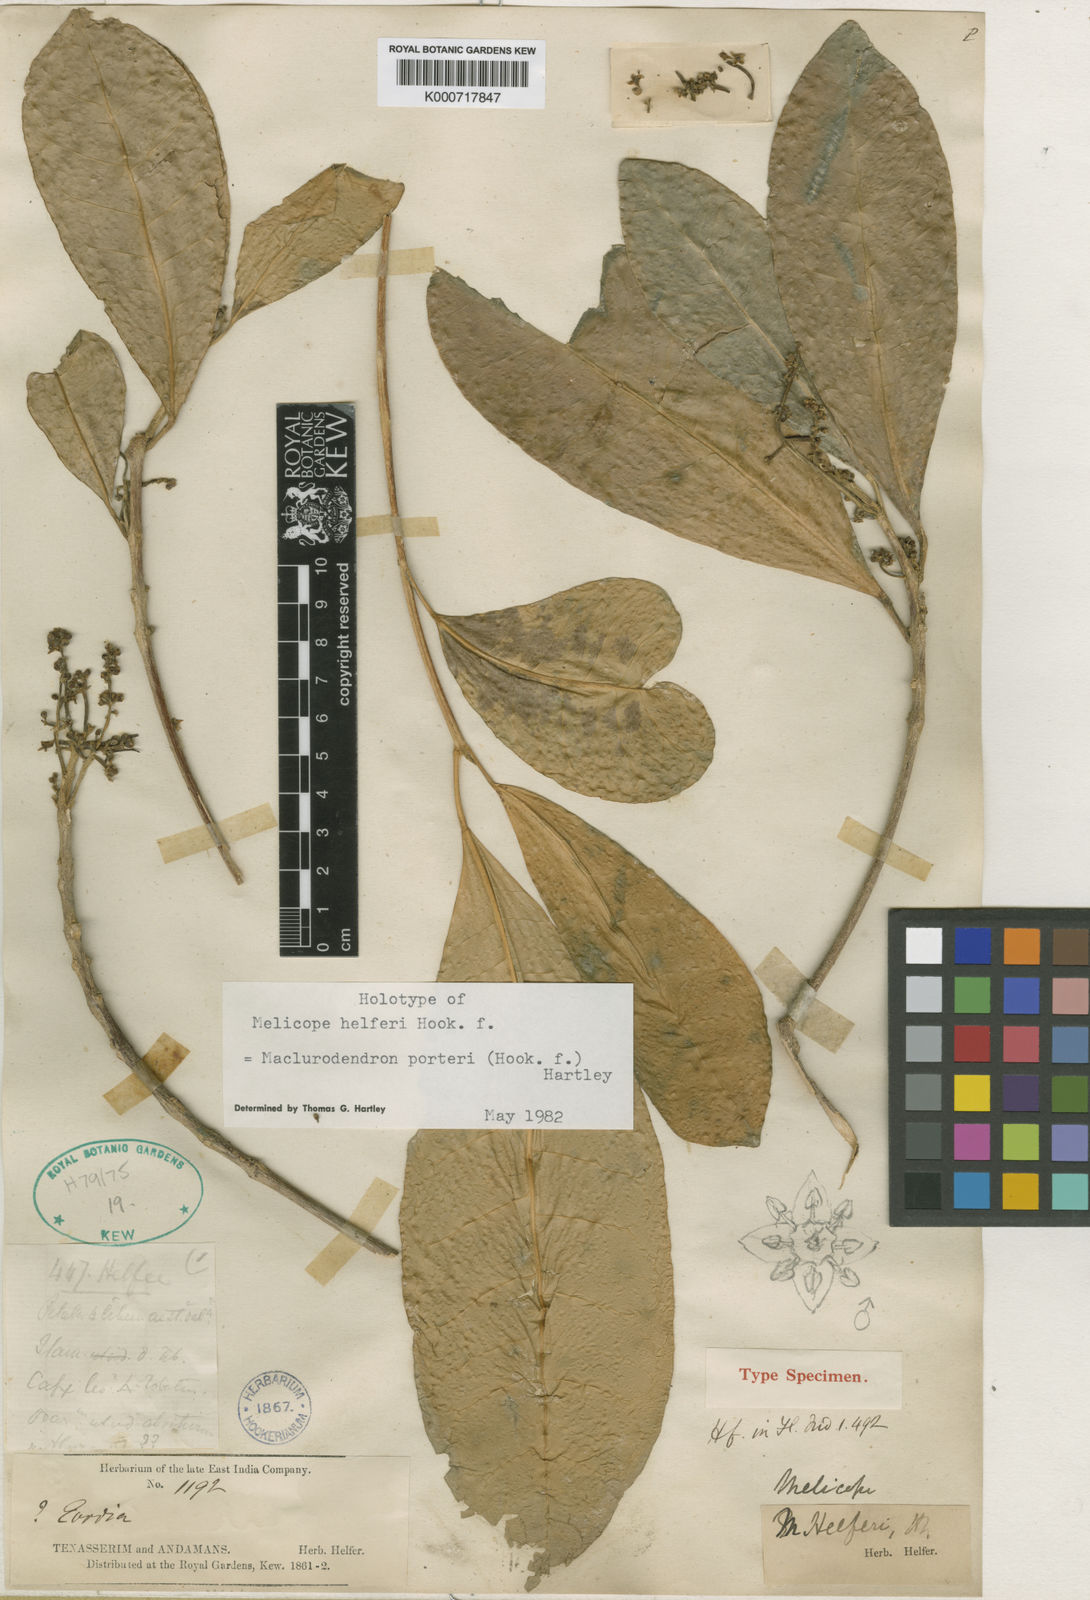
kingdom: Plantae
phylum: Tracheophyta
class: Magnoliopsida
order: Sapindales
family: Rutaceae
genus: Maclurodendron
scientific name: Maclurodendron porteri
